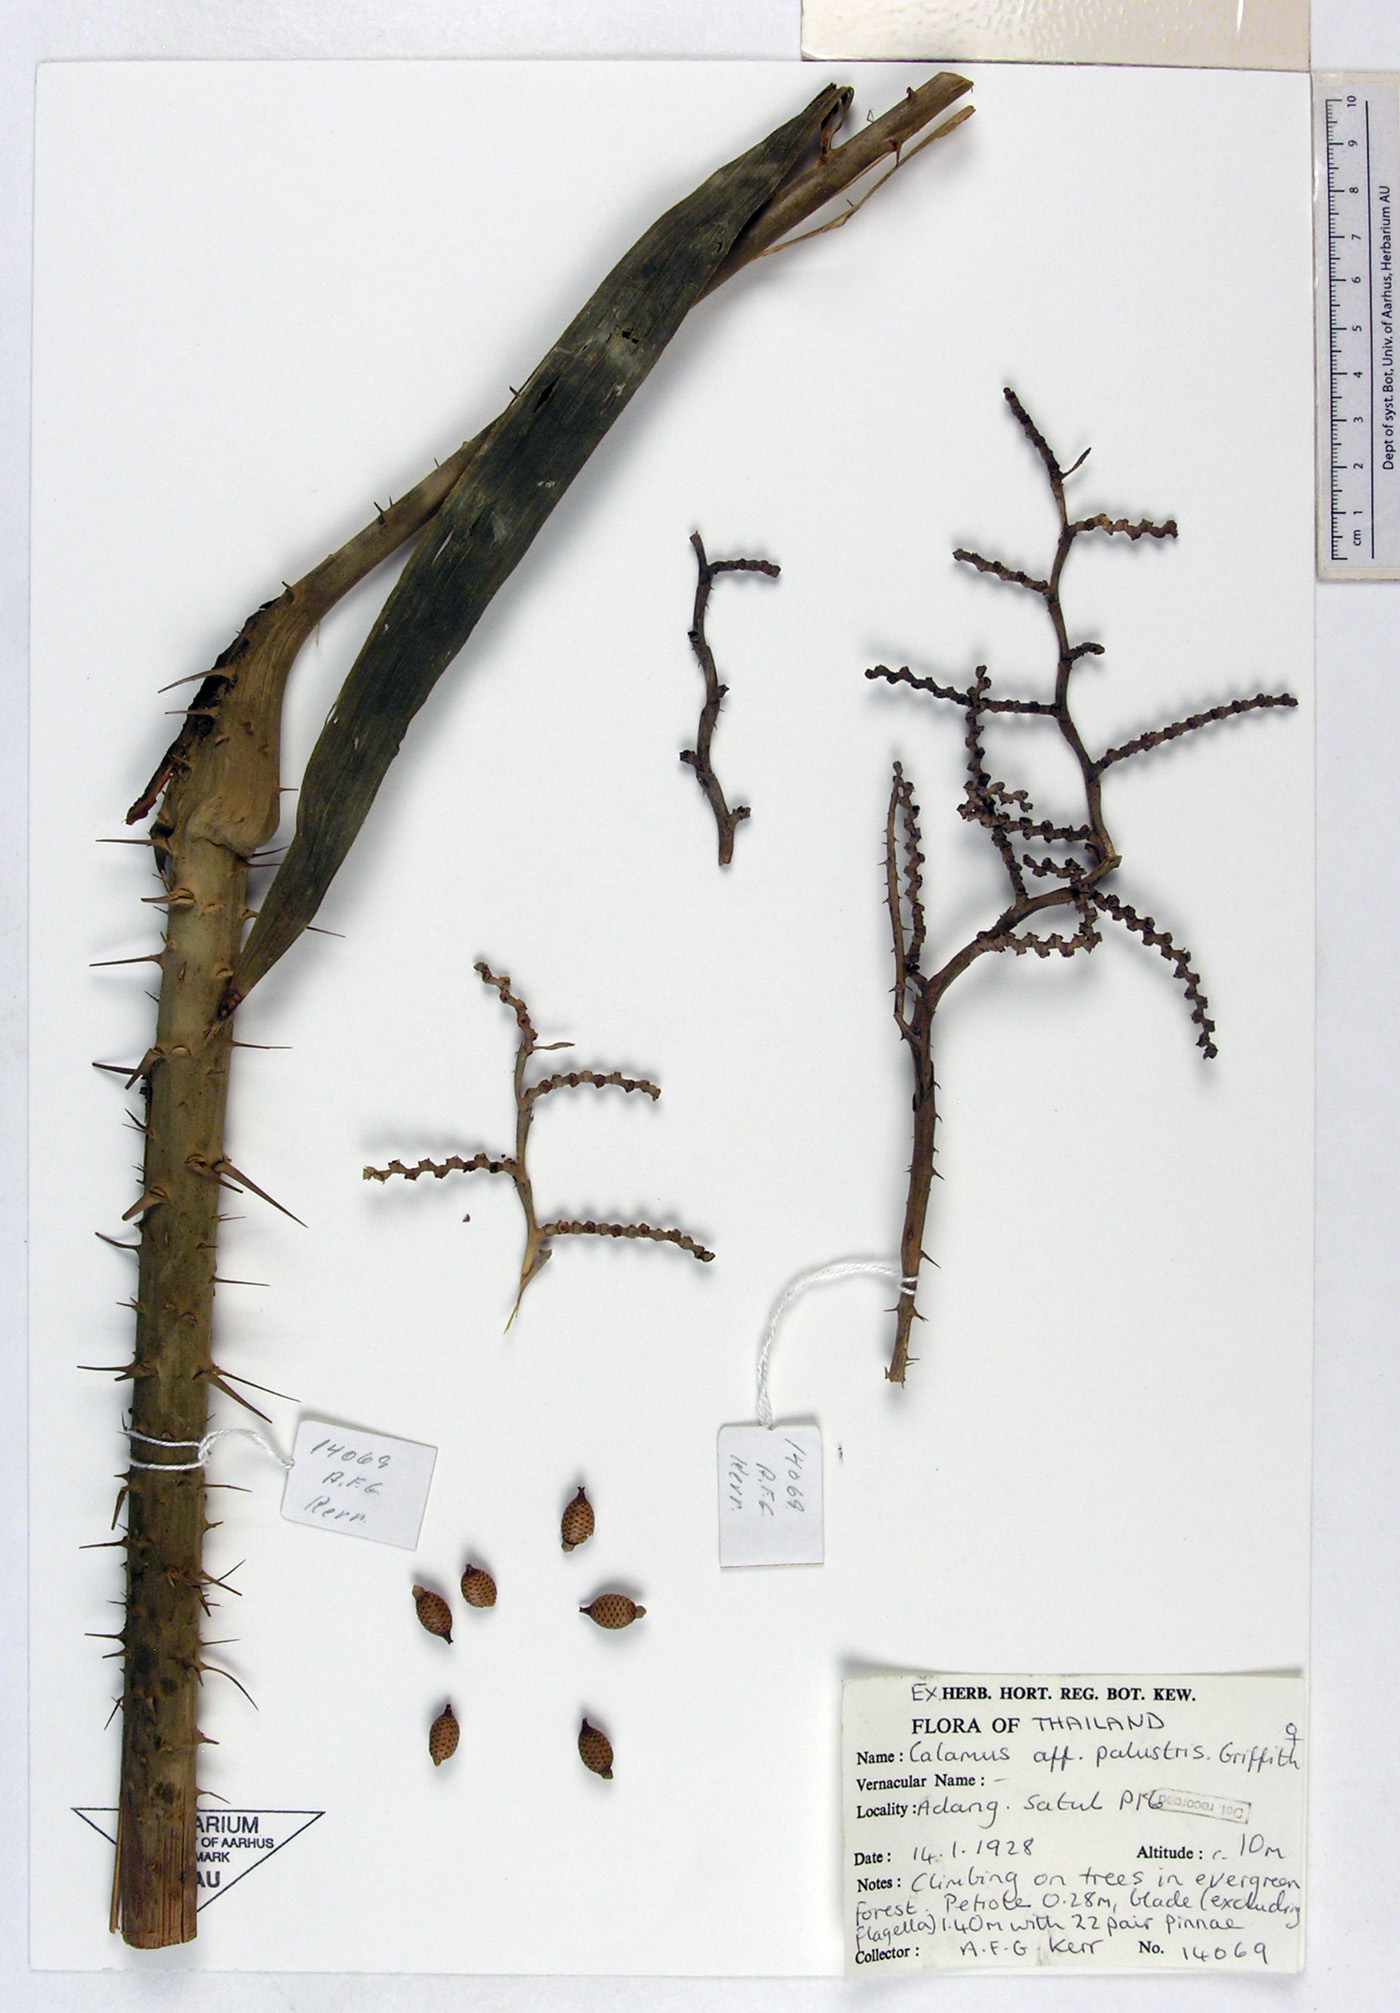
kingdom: Plantae
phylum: Tracheophyta
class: Liliopsida
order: Arecales
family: Arecaceae
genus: Calamus
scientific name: Calamus latifolius
